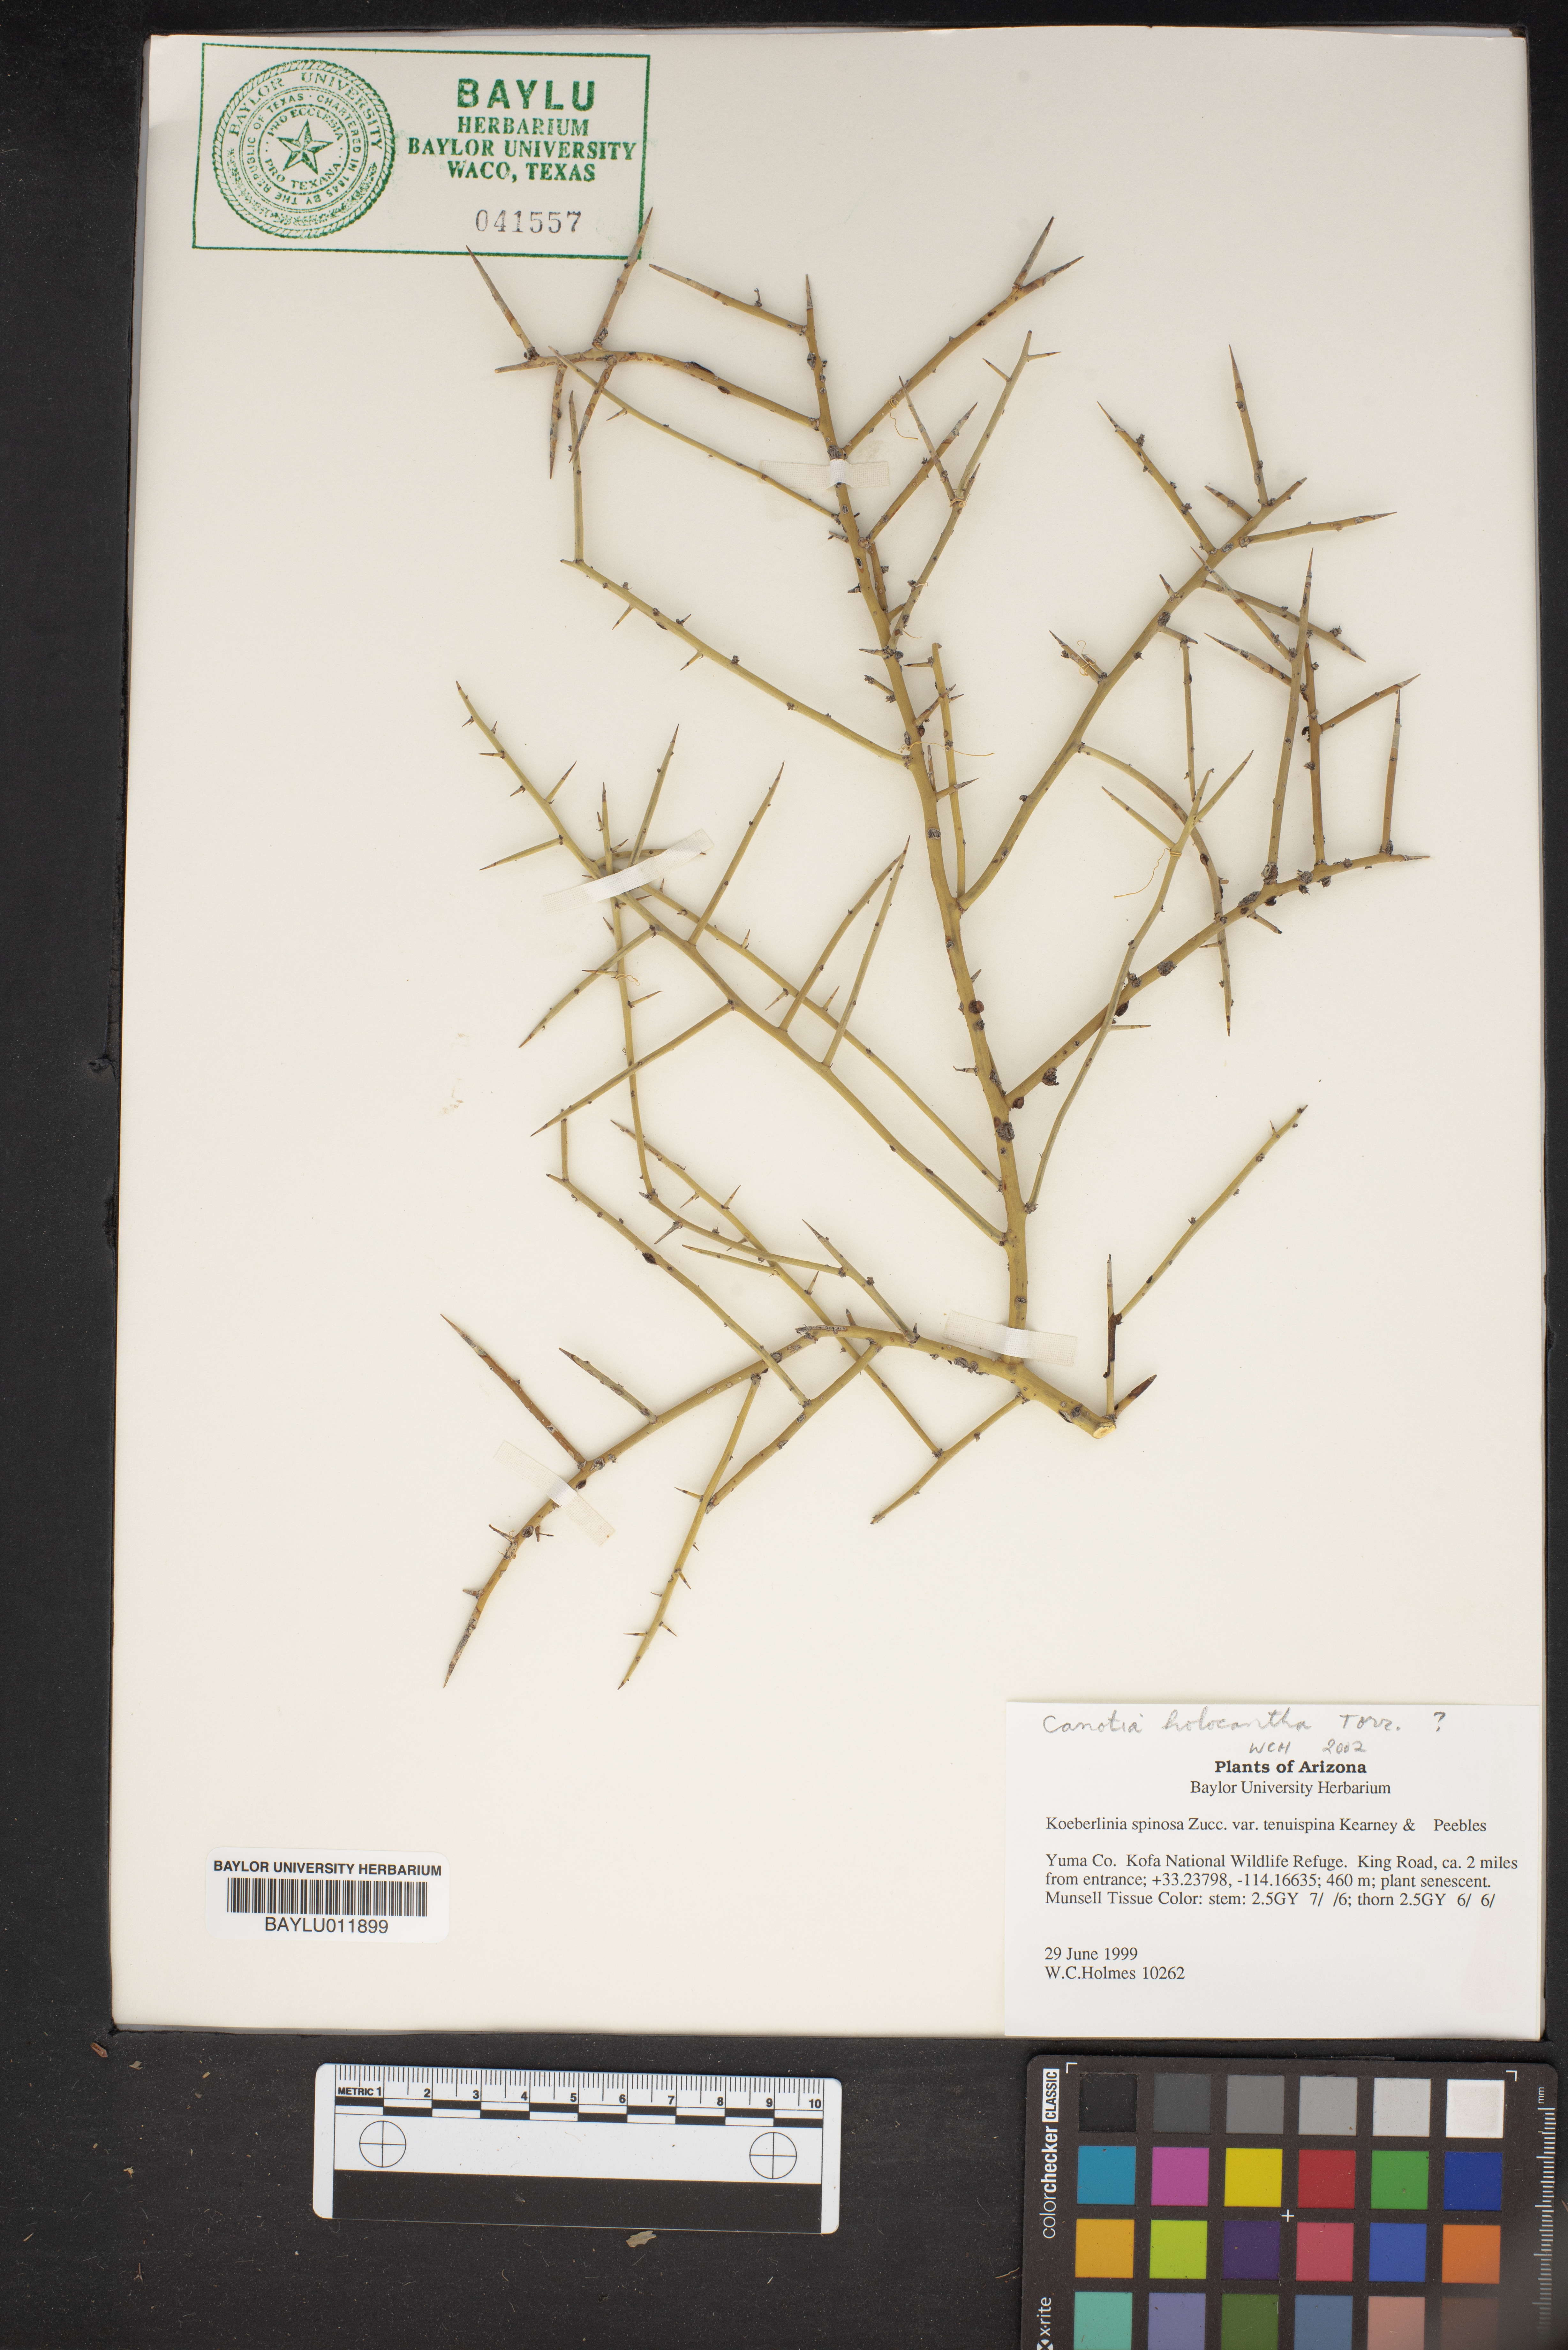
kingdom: Plantae
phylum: Tracheophyta
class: Magnoliopsida
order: Brassicales
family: Koeberliniaceae
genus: Koeberlinia
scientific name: Koeberlinia spinosa
